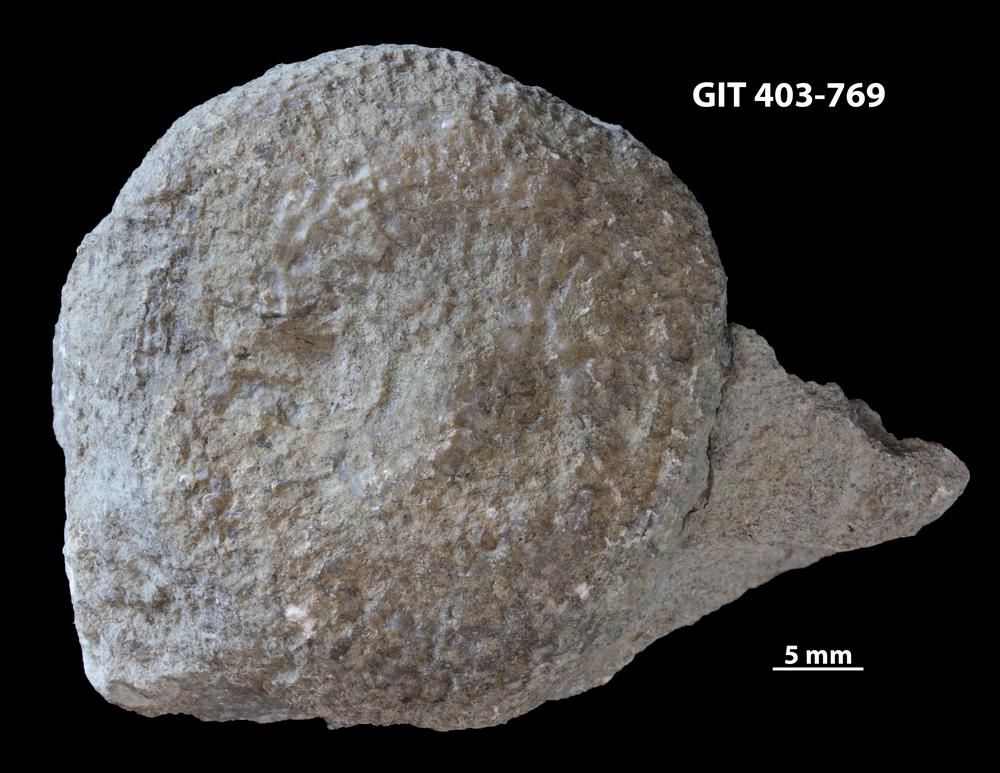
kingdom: Animalia
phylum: Cnidaria
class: Anthozoa
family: Favositidae
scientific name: Favositidae
